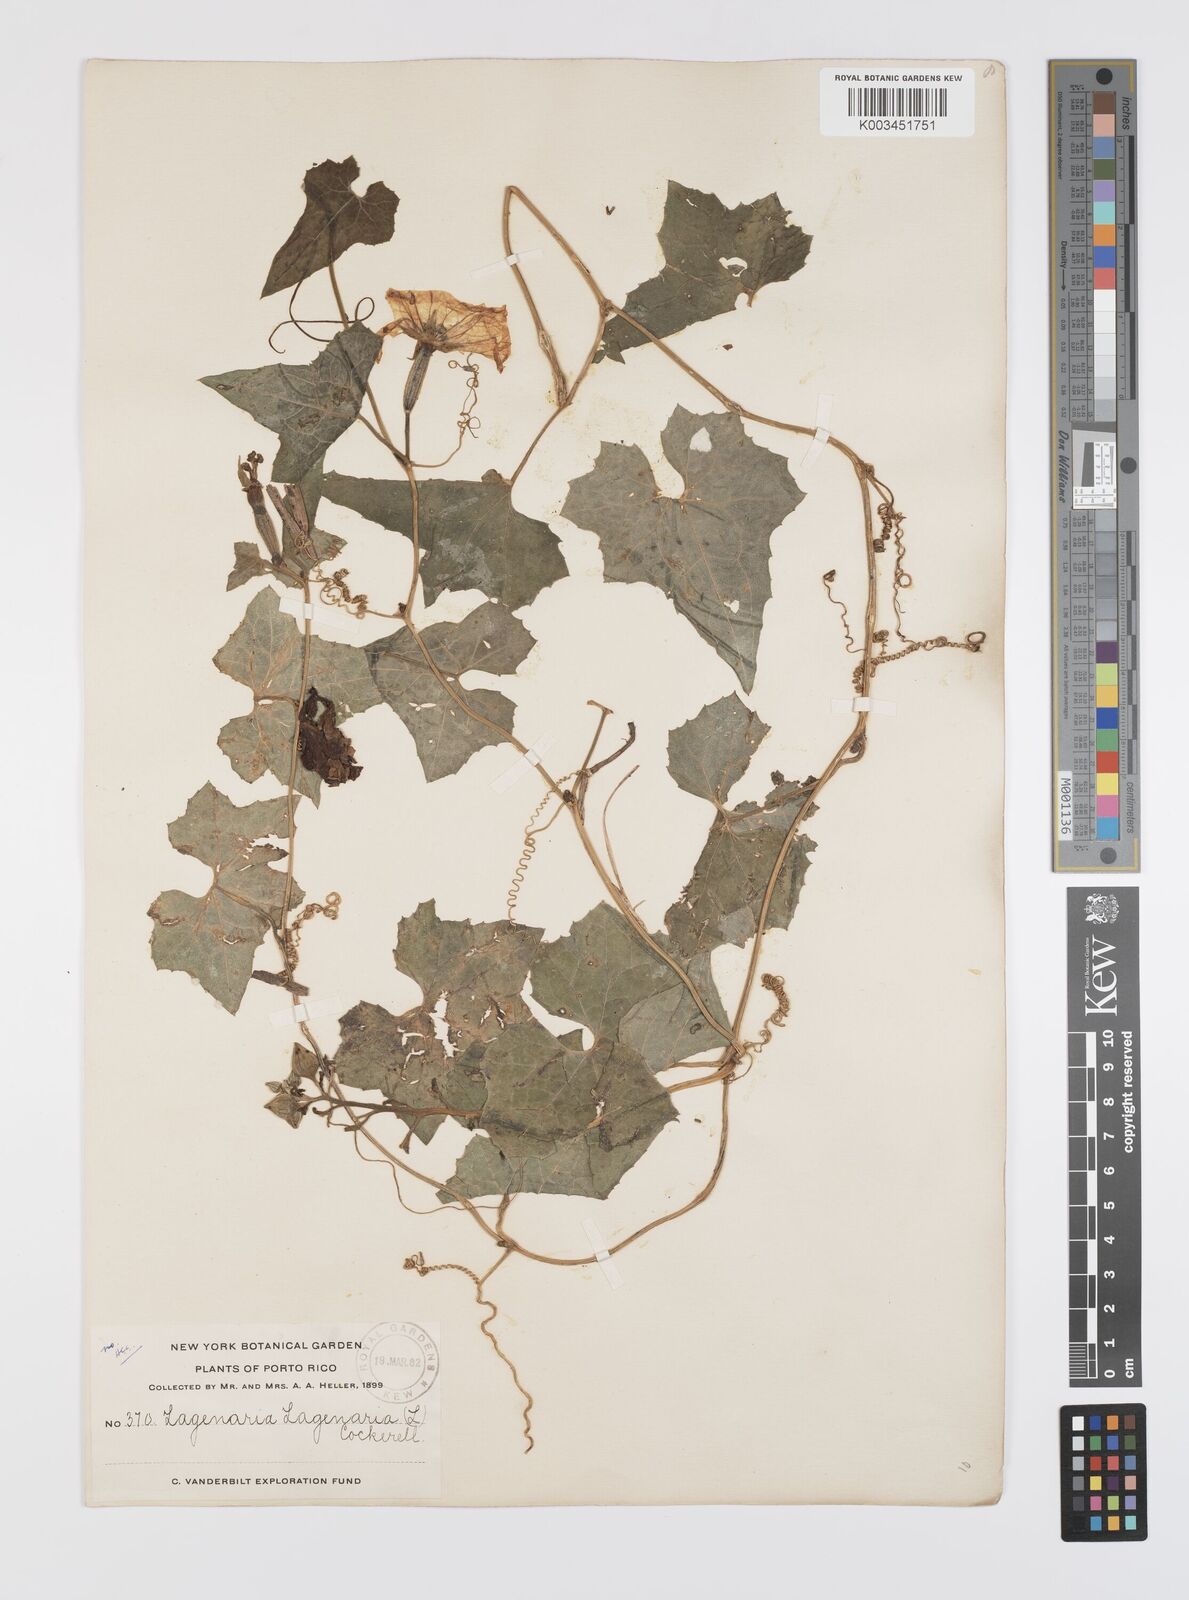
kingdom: Plantae
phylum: Tracheophyta
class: Magnoliopsida
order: Cucurbitales
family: Cucurbitaceae
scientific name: Cucurbitaceae
